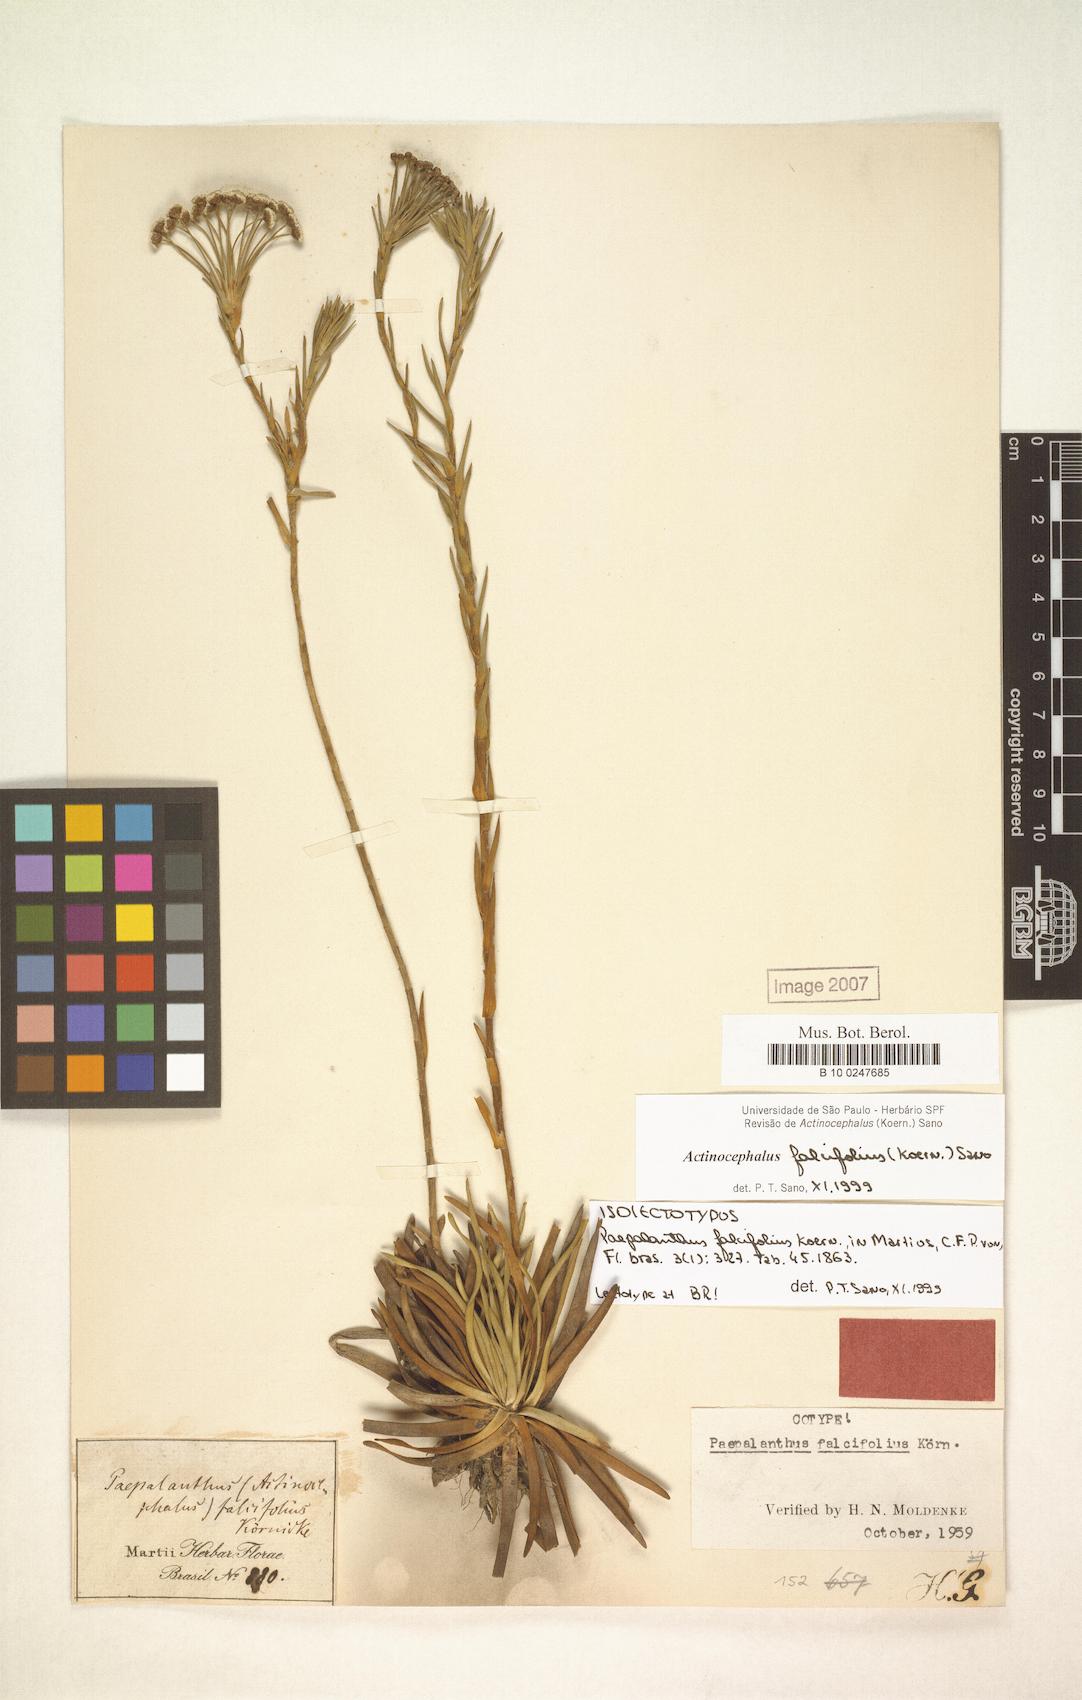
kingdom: Plantae
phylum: Tracheophyta
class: Liliopsida
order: Poales
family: Eriocaulaceae
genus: Paepalanthus
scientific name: Paepalanthus falcifolius
